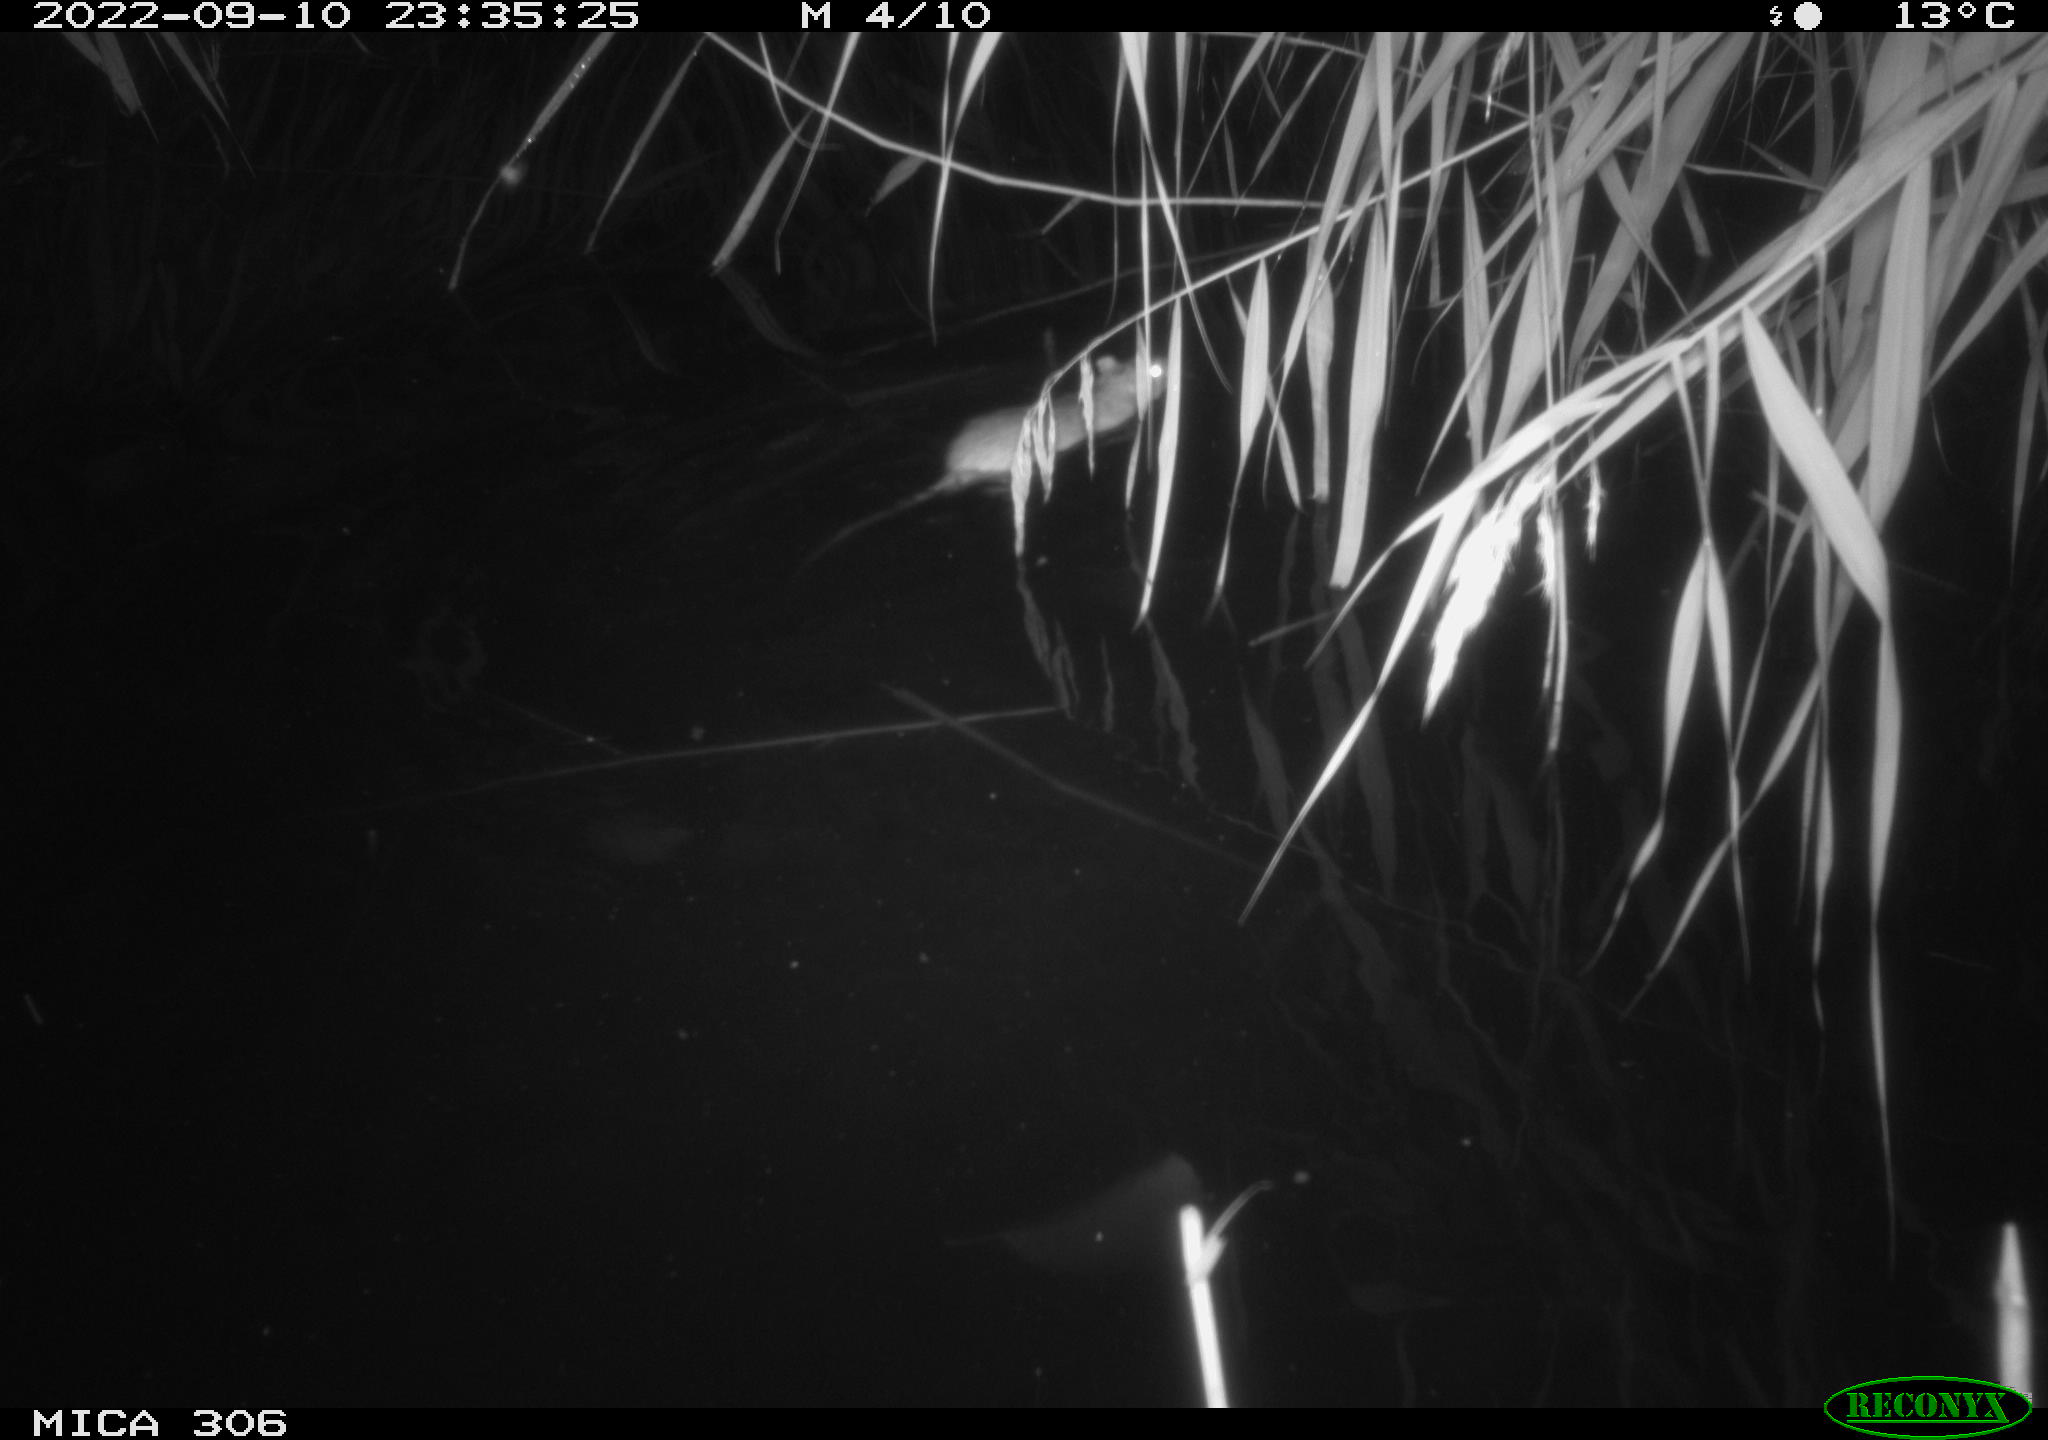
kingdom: Animalia
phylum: Chordata
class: Mammalia
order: Rodentia
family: Muridae
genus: Rattus
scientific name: Rattus norvegicus
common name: Brown rat
